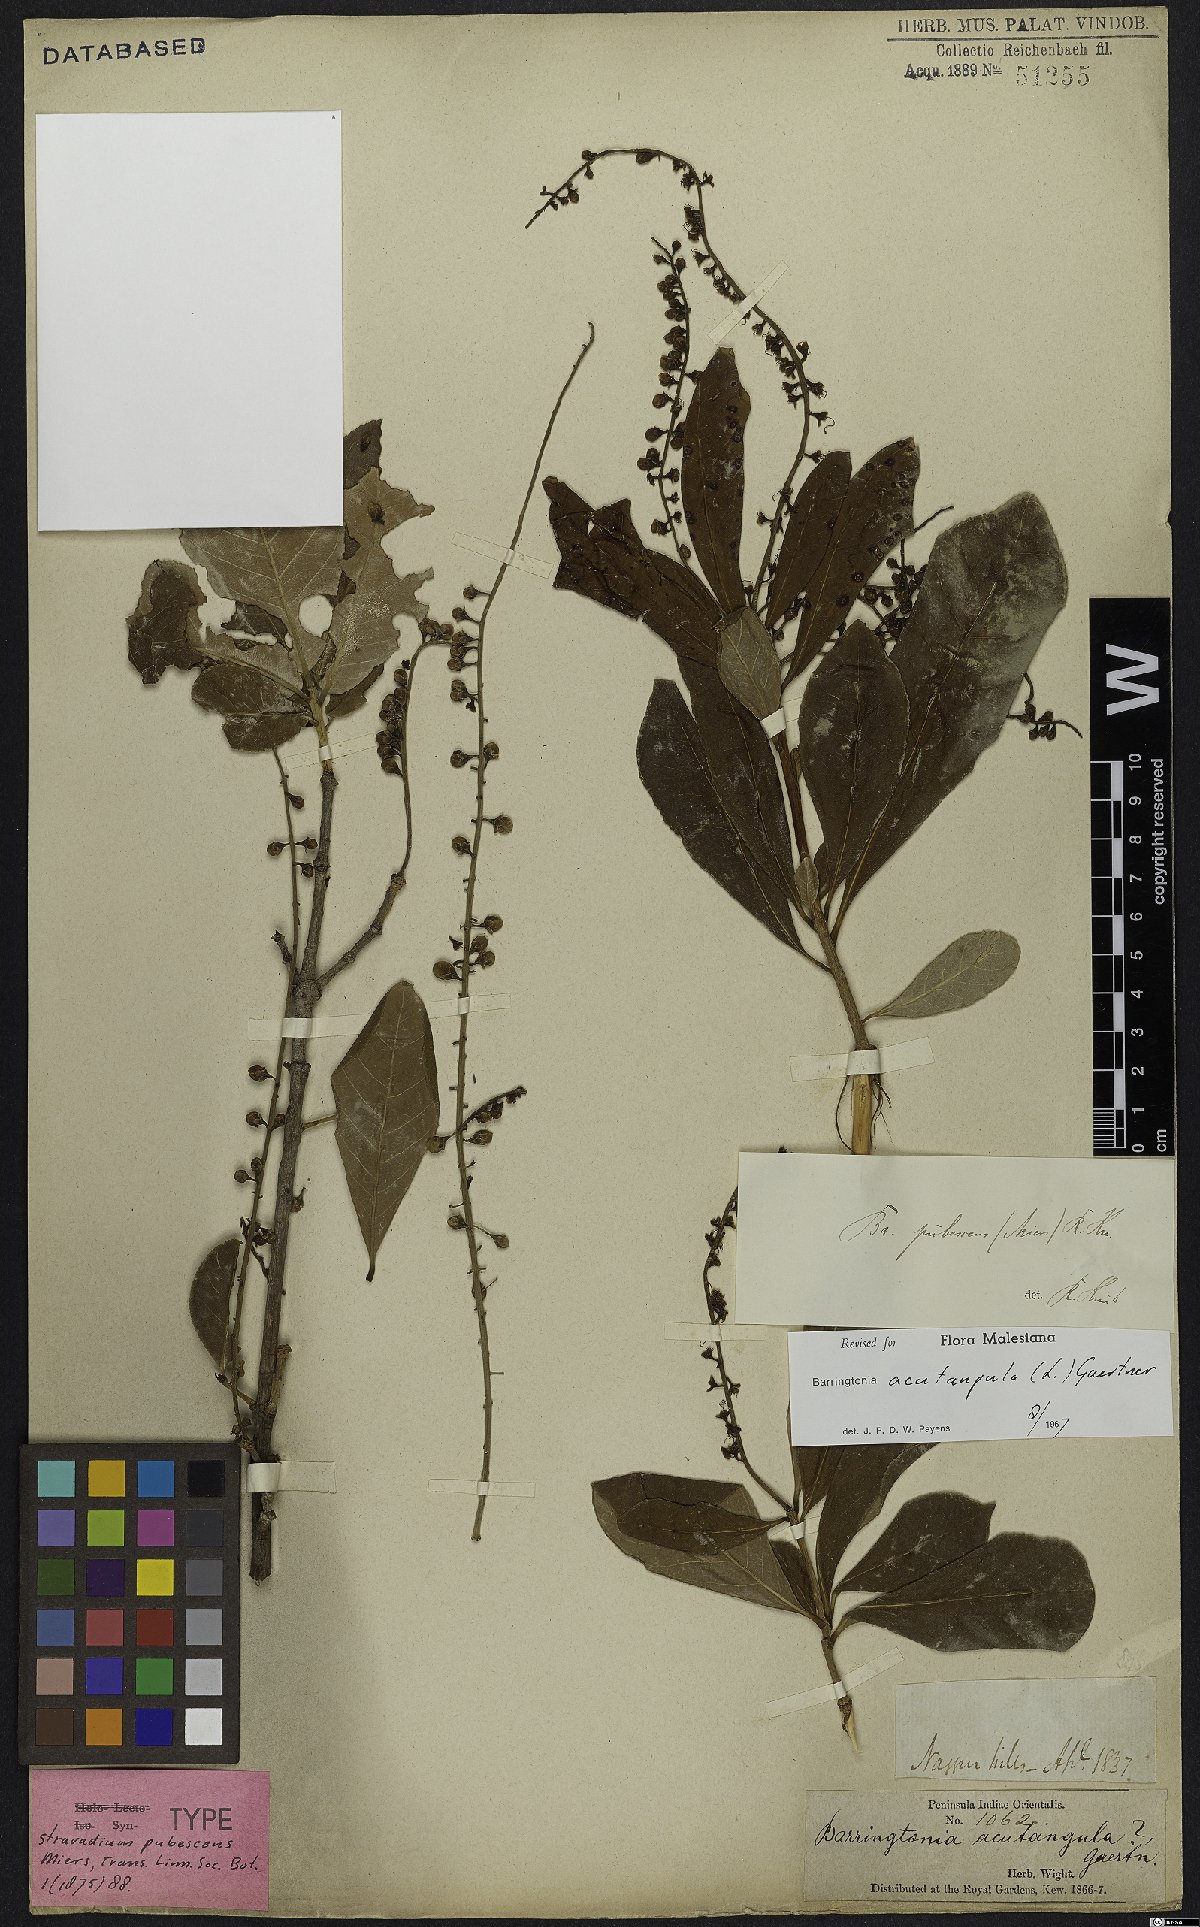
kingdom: Plantae
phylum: Tracheophyta
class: Magnoliopsida
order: Ericales
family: Lecythidaceae
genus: Barringtonia
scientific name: Barringtonia acutangula
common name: Freshwater mangrove
